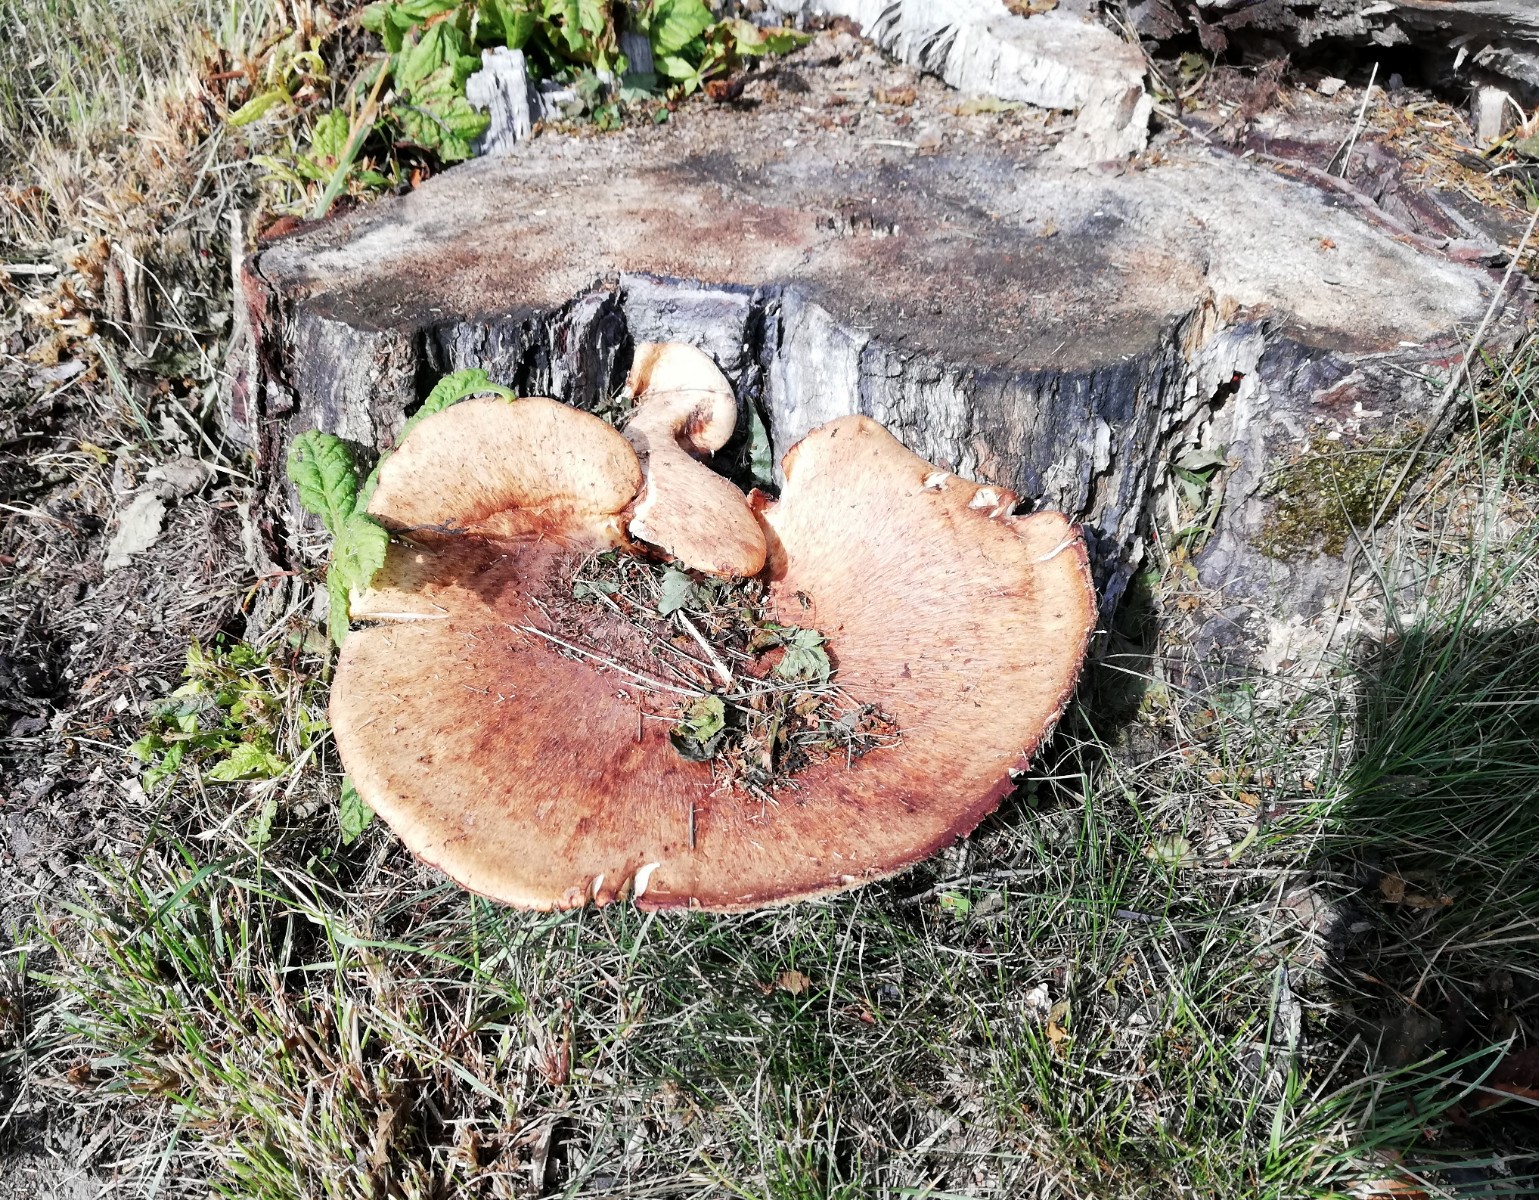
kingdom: Fungi
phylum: Basidiomycota
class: Agaricomycetes
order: Polyporales
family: Polyporaceae
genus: Cerioporus
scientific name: Cerioporus squamosus
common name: skællet stilkporesvamp
